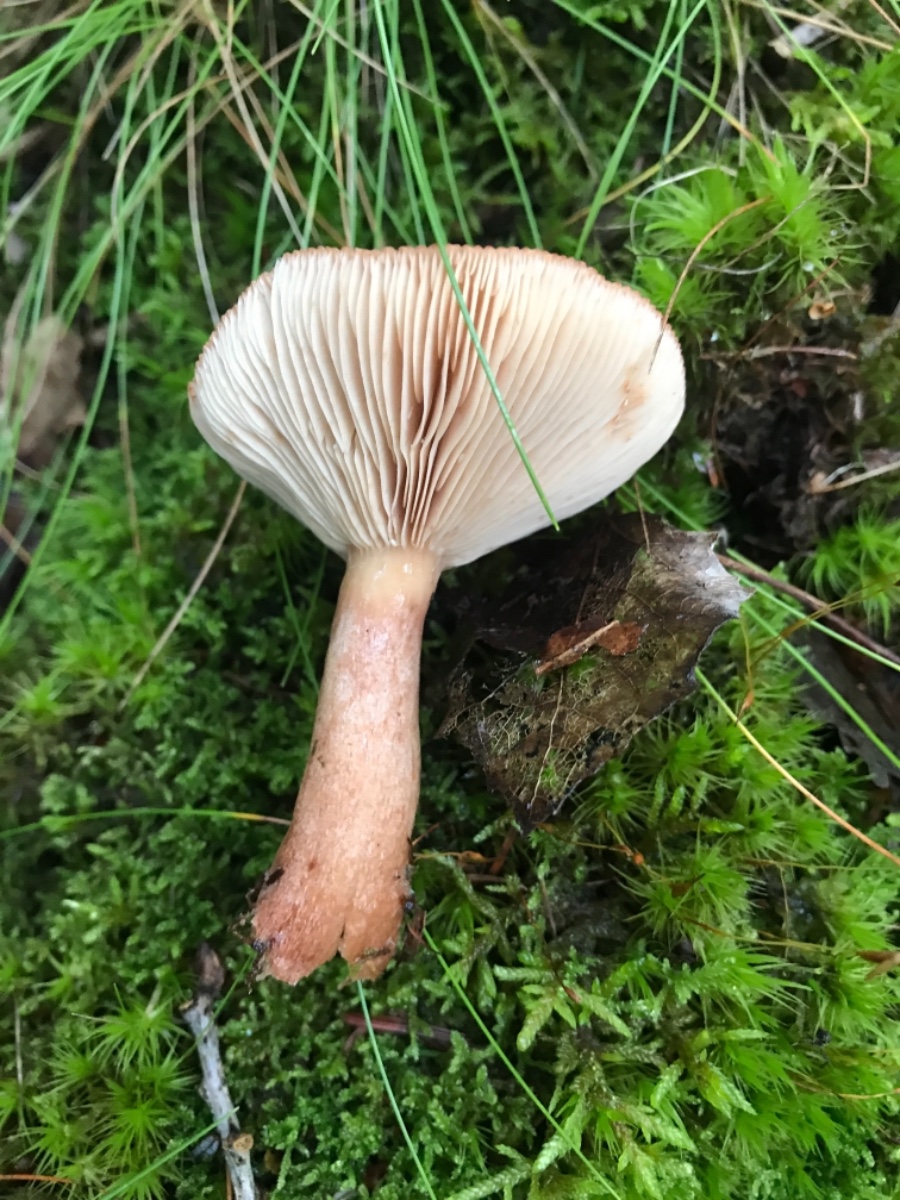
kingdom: Fungi
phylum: Basidiomycota
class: Agaricomycetes
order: Russulales
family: Russulaceae
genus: Lactarius
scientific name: Lactarius quietus
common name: ege-mælkehat
